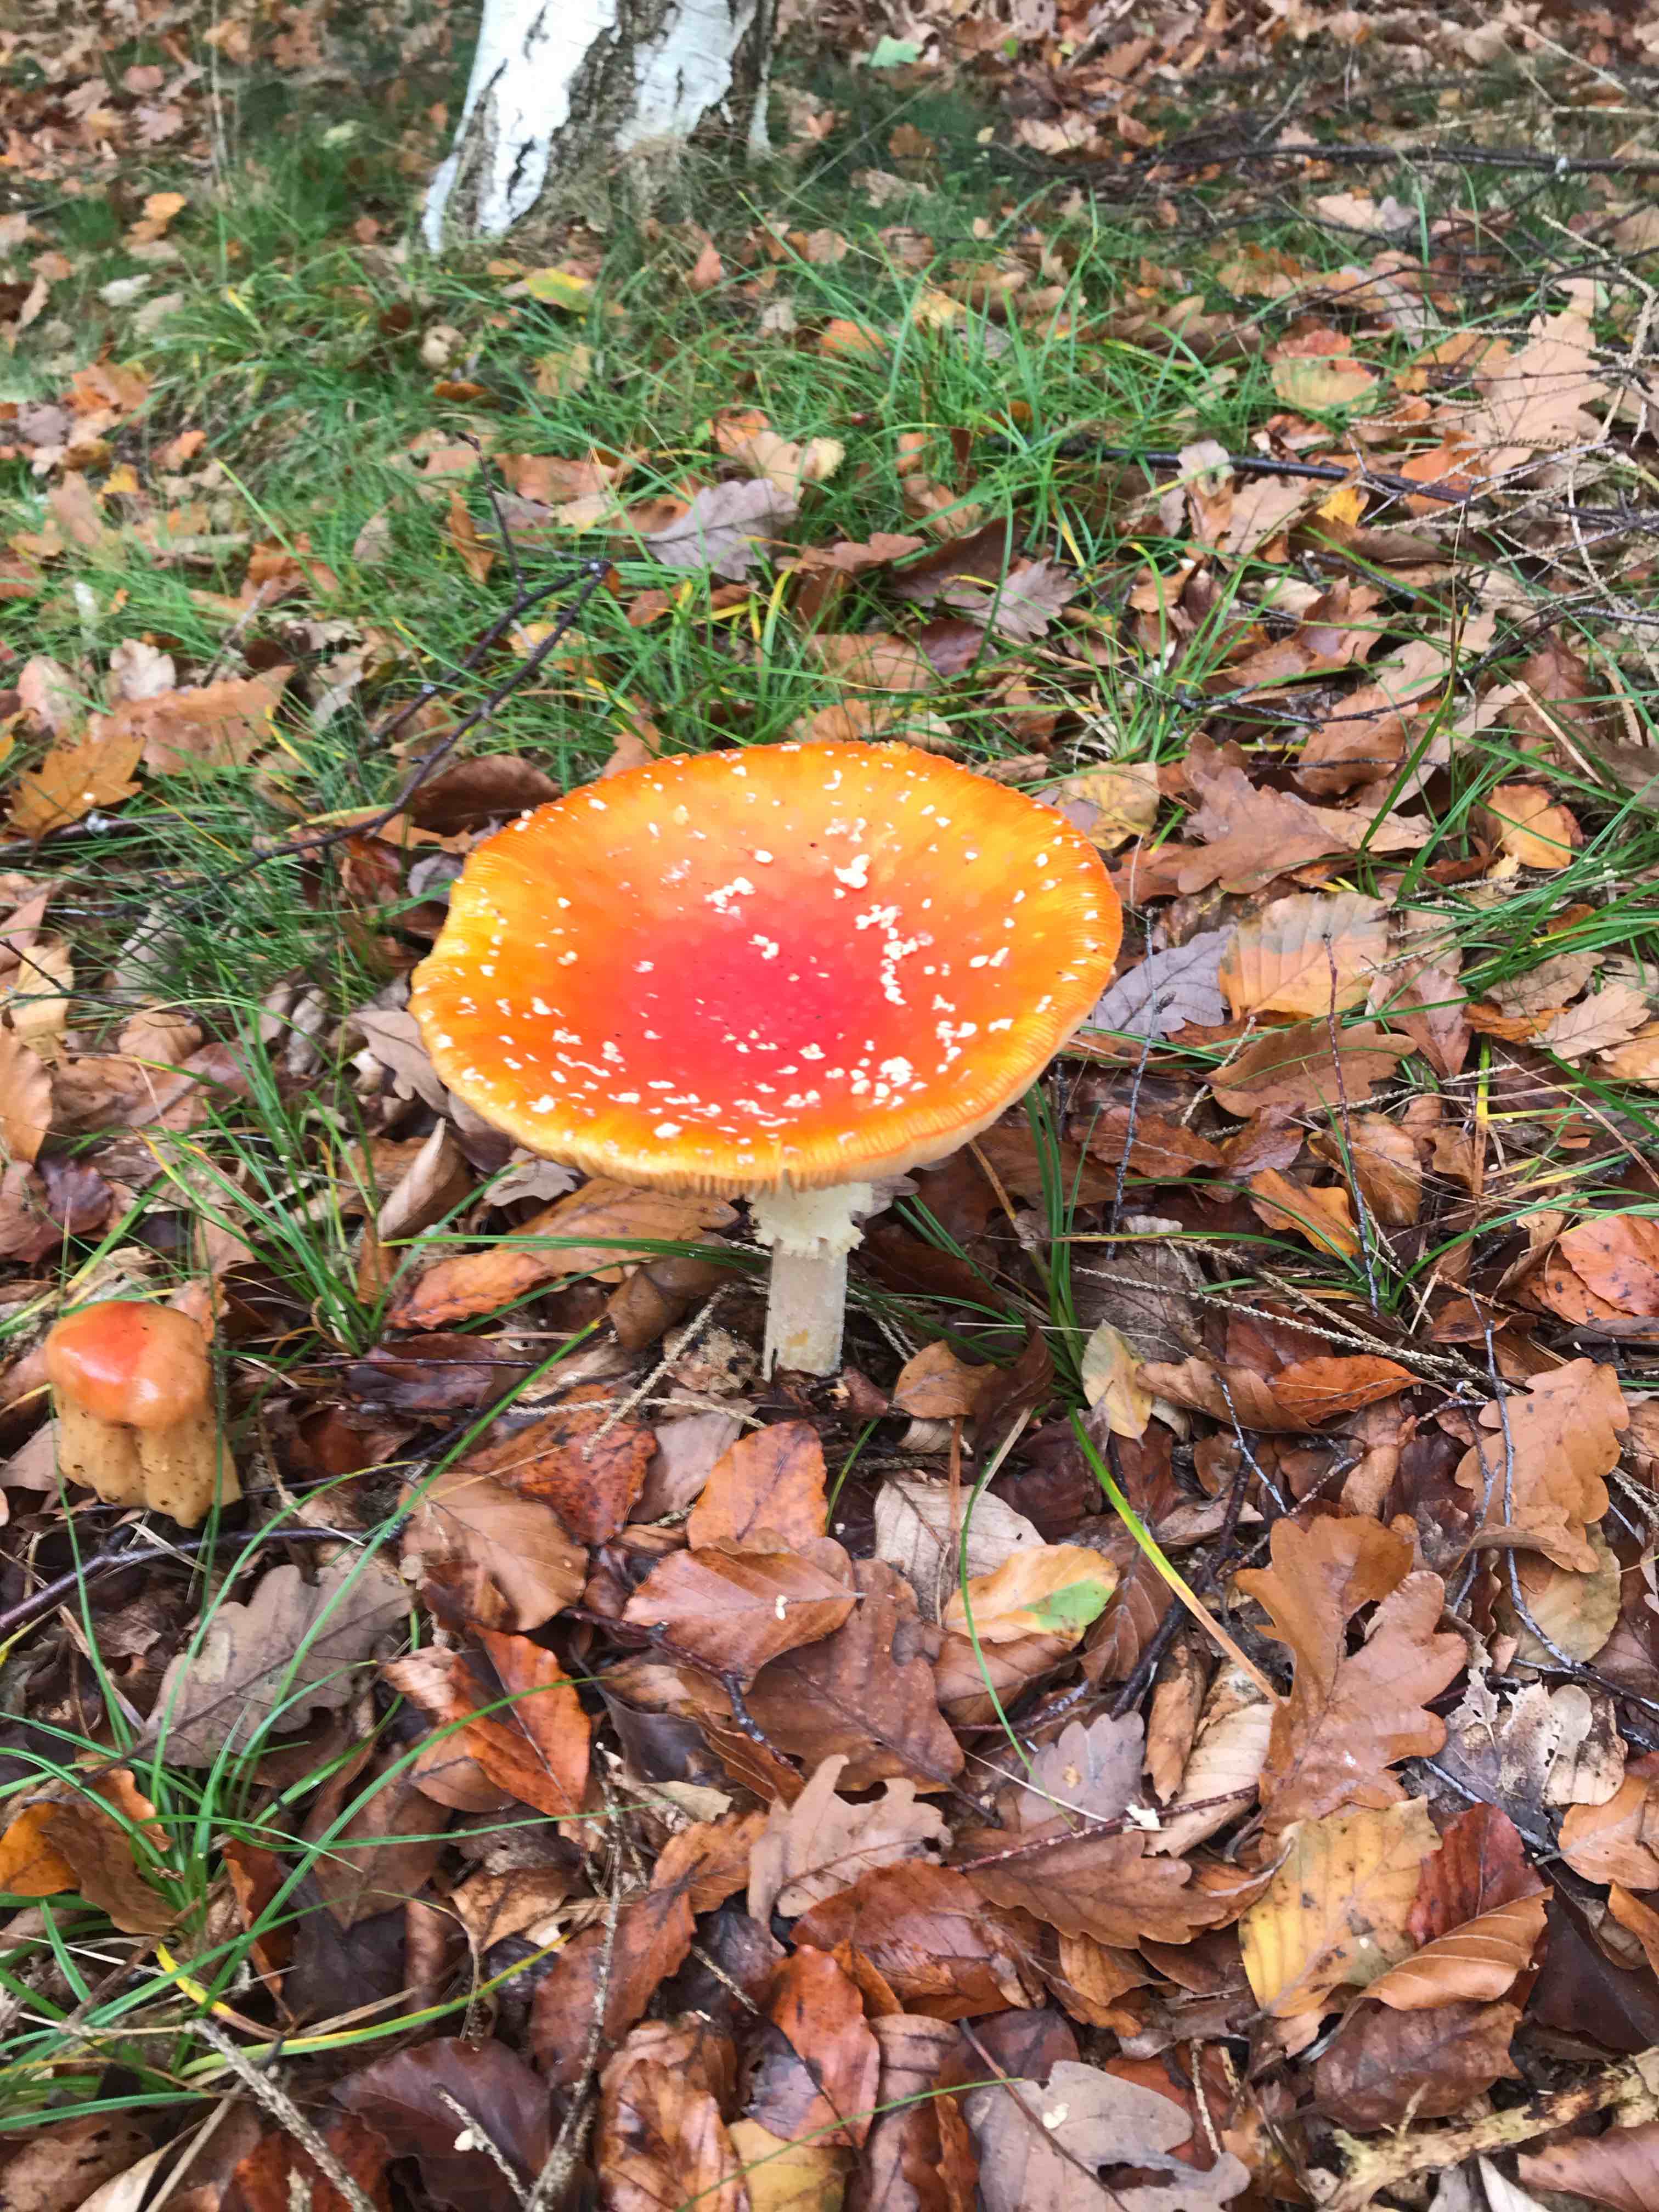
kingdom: Fungi
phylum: Basidiomycota
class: Agaricomycetes
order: Agaricales
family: Amanitaceae
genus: Amanita
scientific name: Amanita muscaria
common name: rød fluesvamp
